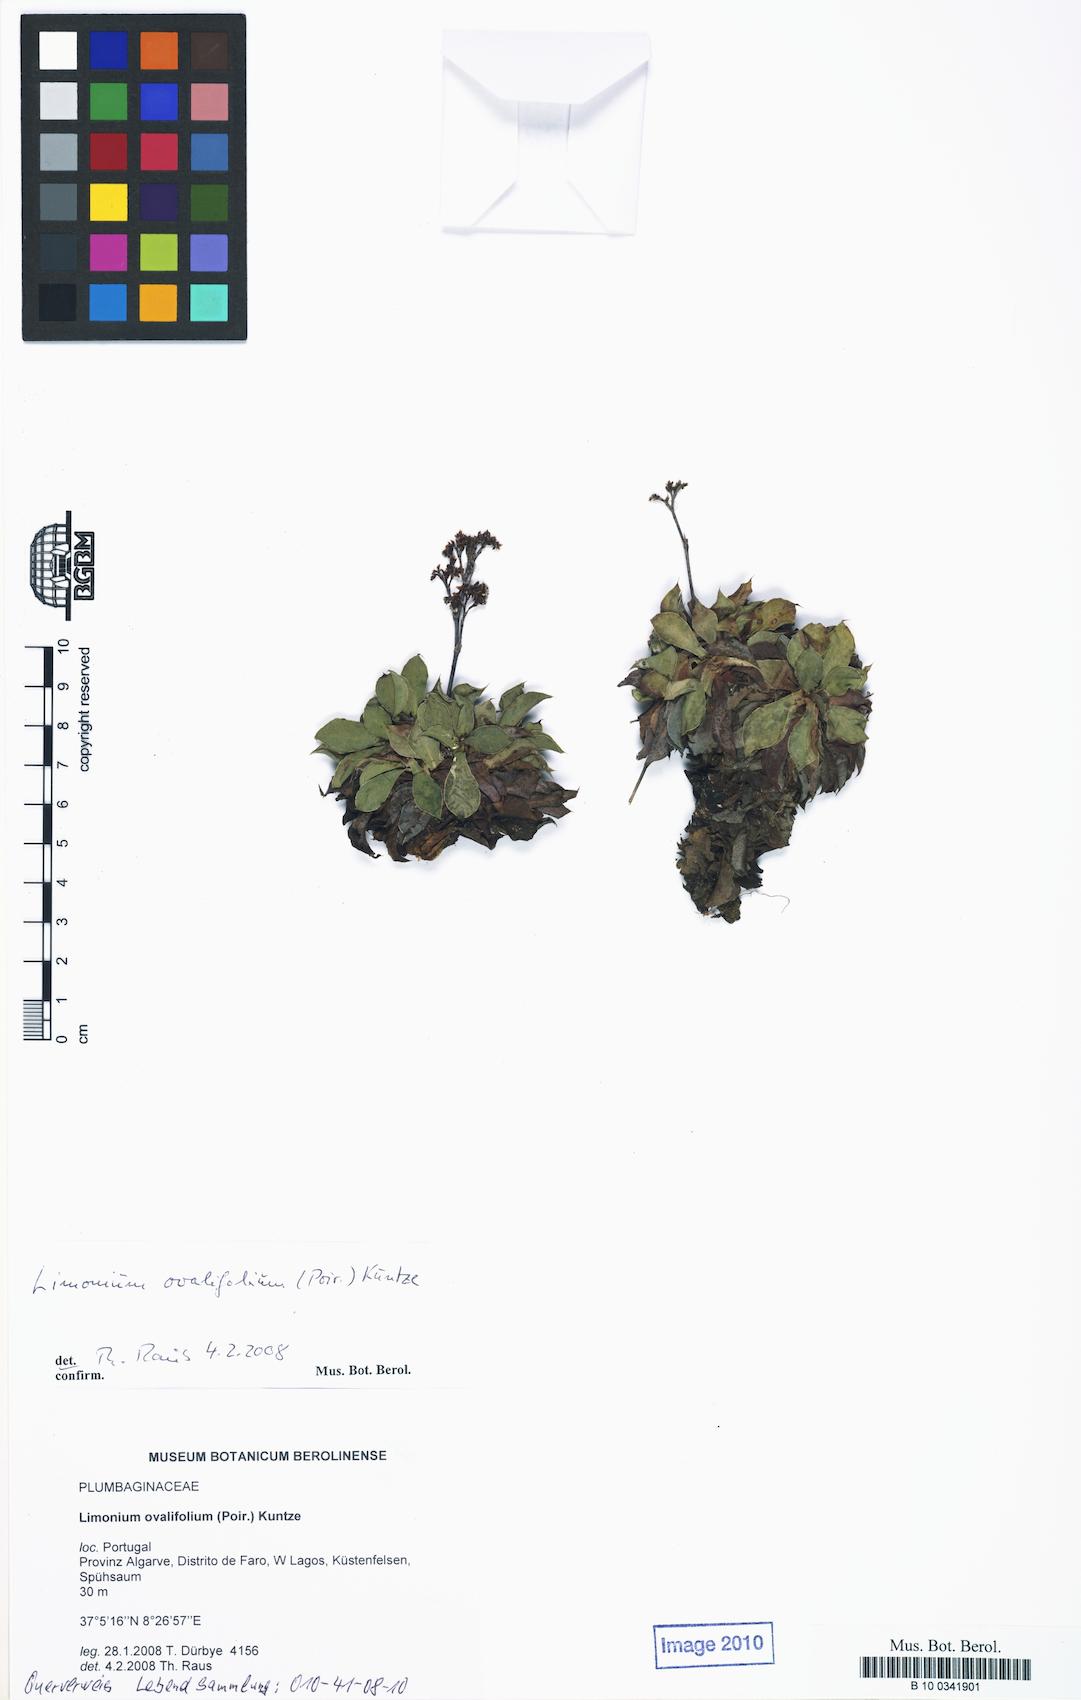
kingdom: Plantae
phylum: Tracheophyta
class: Magnoliopsida
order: Caryophyllales
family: Plumbaginaceae
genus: Limonium
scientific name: Limonium ovalifolium
